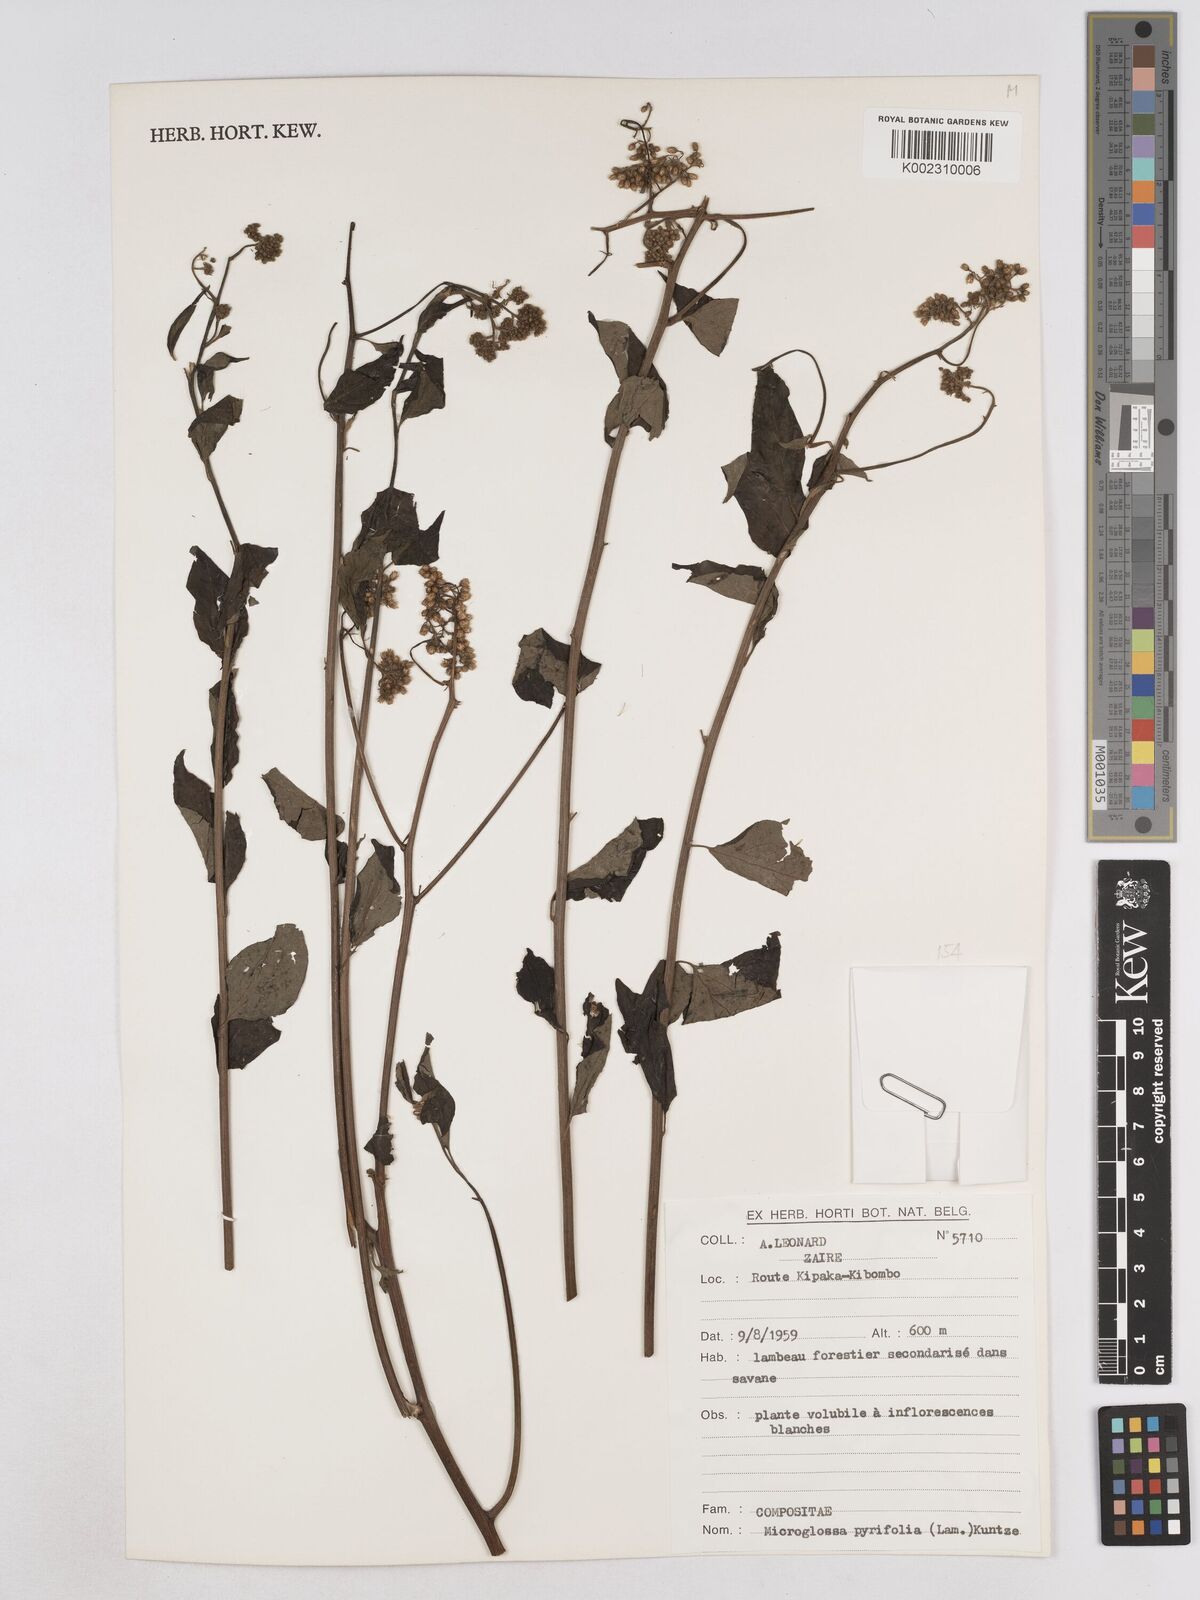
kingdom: Plantae
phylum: Tracheophyta
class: Magnoliopsida
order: Asterales
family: Asteraceae
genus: Microglossa
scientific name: Microglossa pyrifolia
